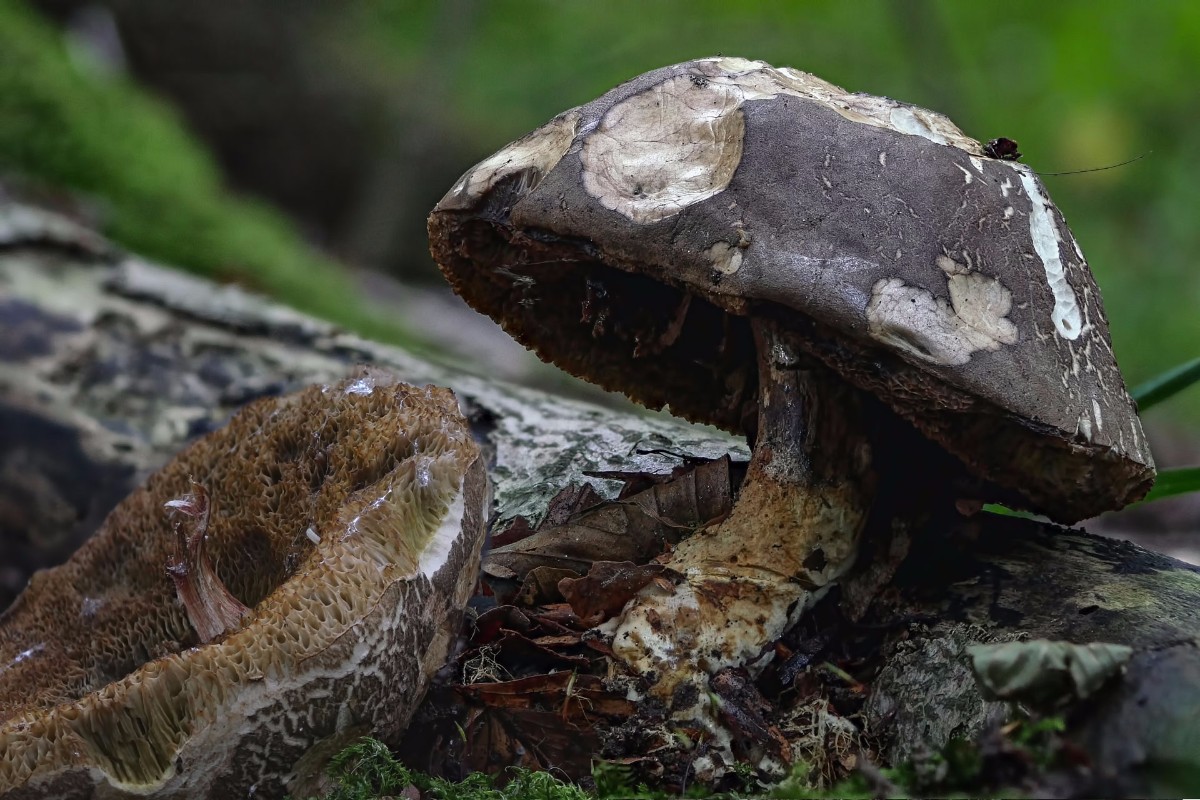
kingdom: Fungi
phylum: Basidiomycota
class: Agaricomycetes
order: Boletales
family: Boletaceae
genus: Porphyrellus
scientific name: Porphyrellus porphyrosporus
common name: sodrørhat
